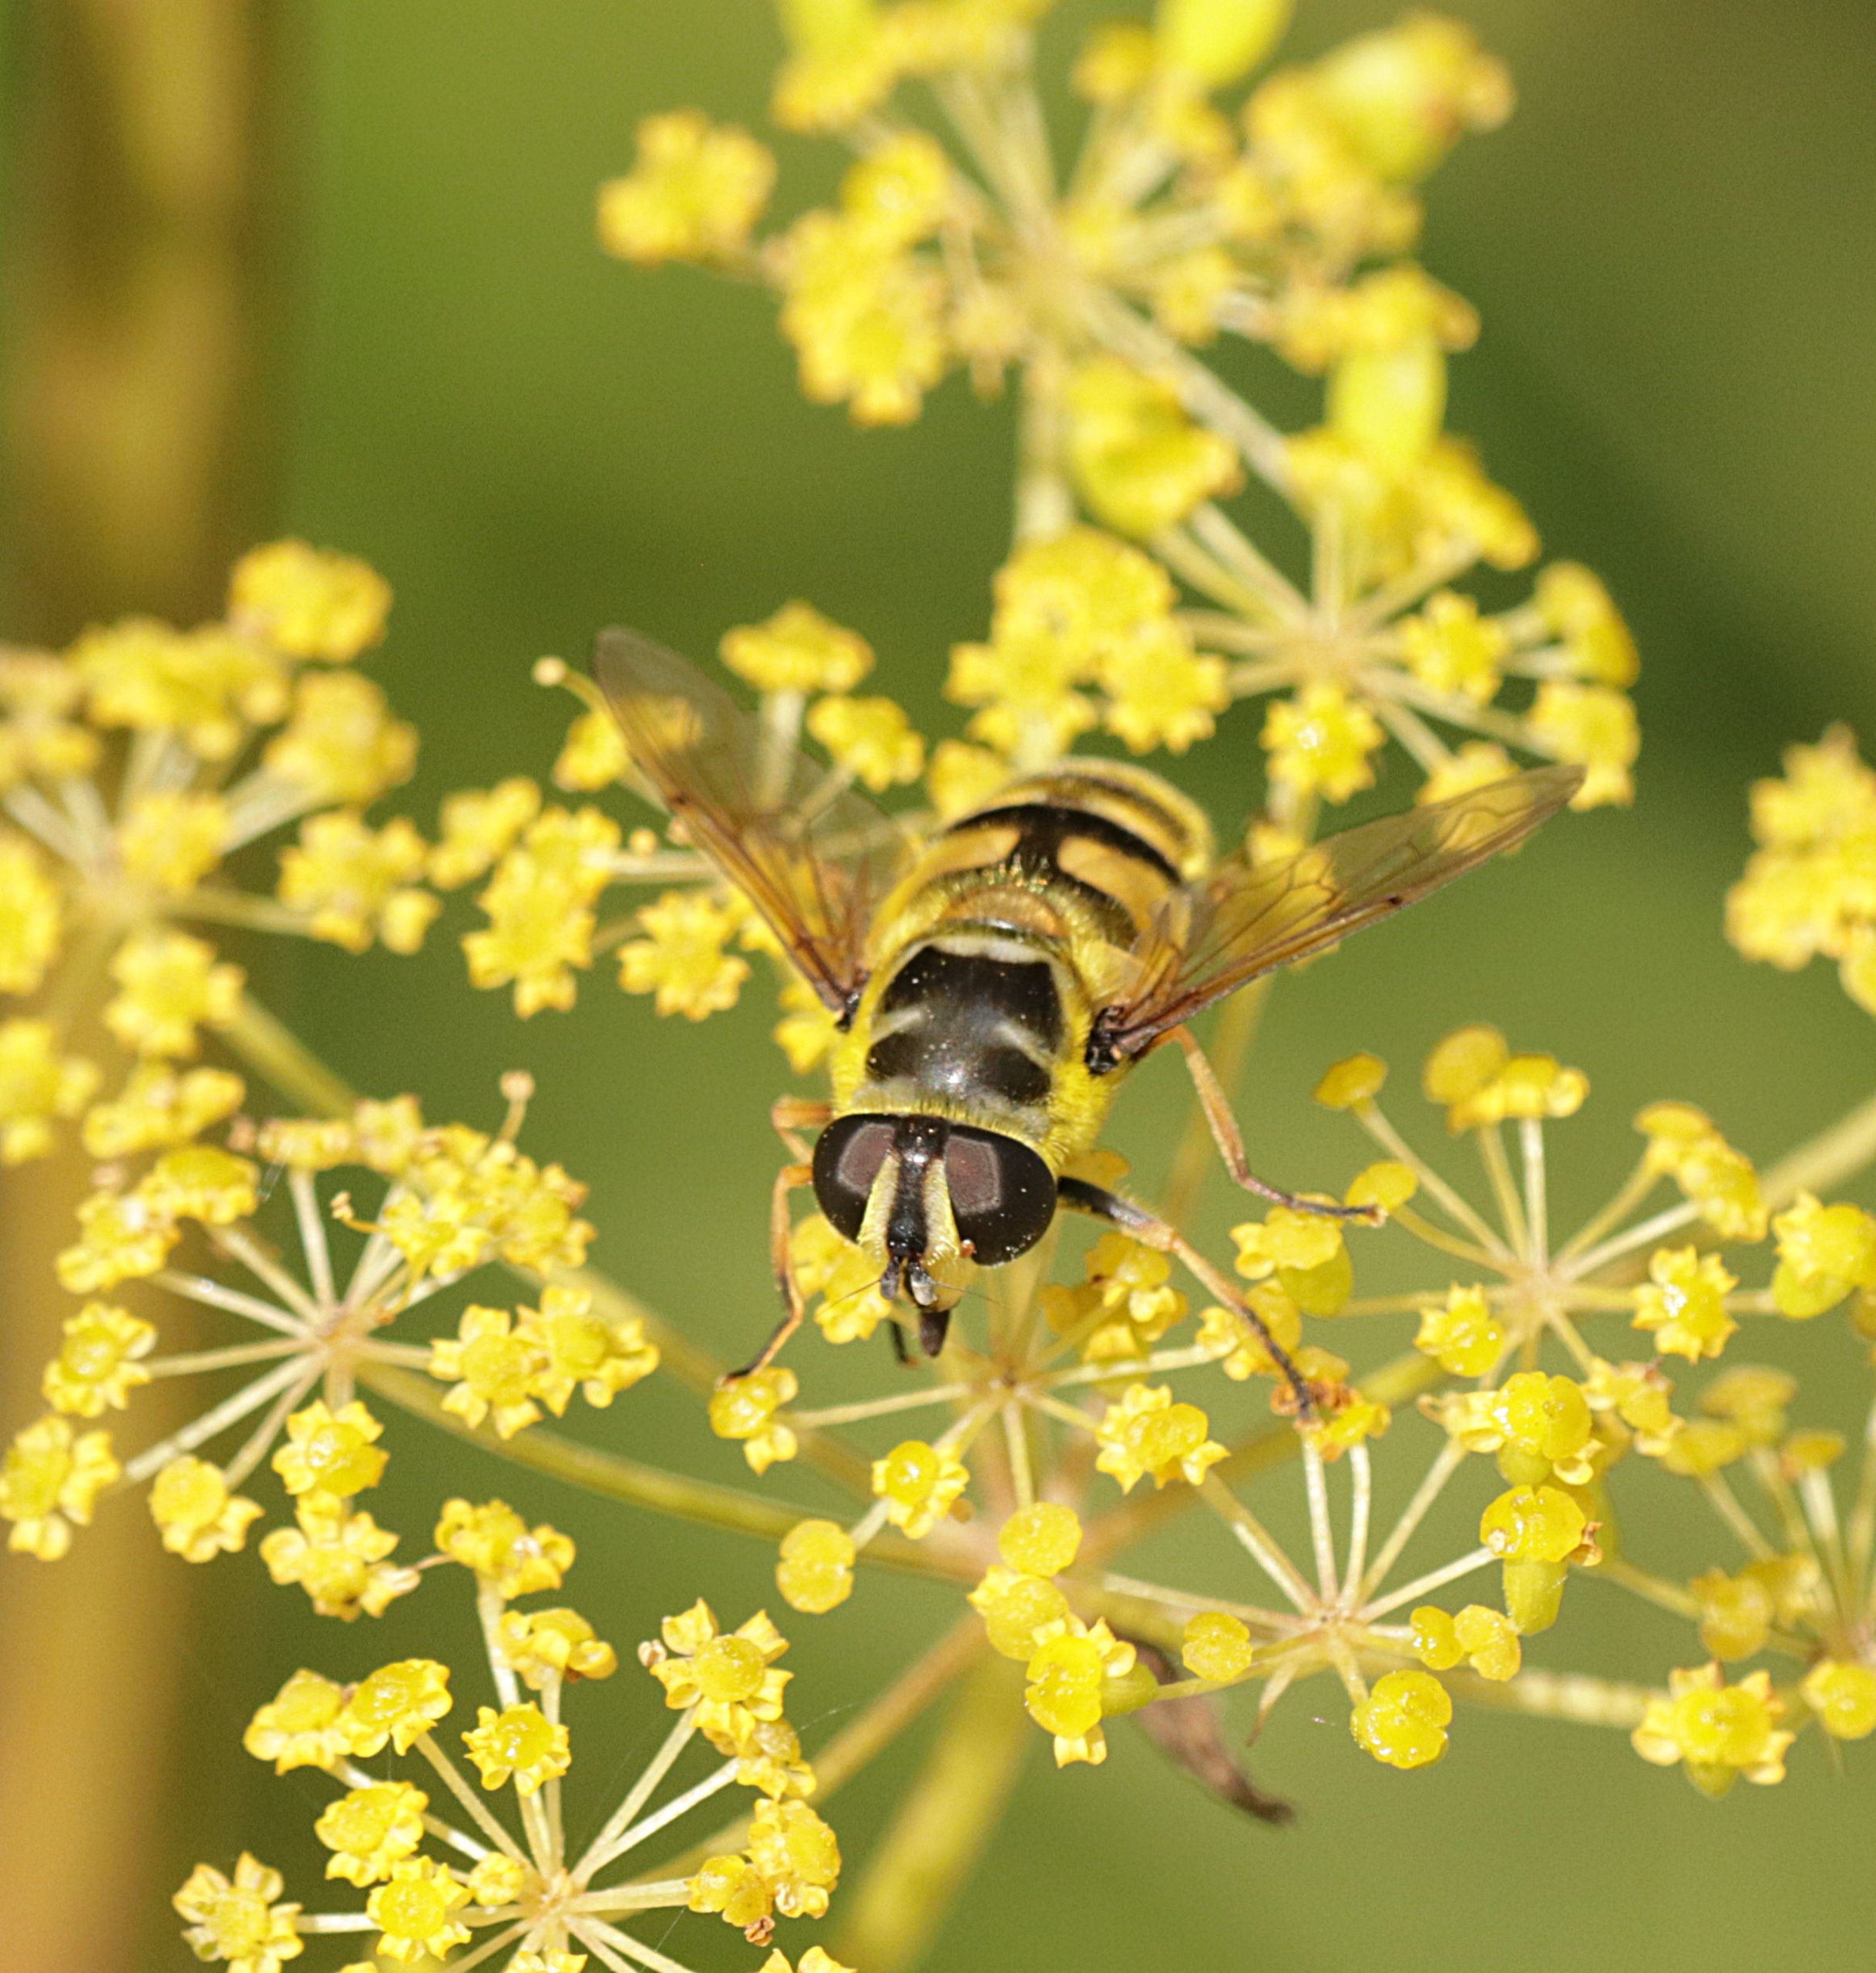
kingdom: Animalia
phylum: Arthropoda
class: Insecta
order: Diptera
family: Syrphidae
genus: Myathropa
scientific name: Myathropa florea
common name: Dødningehoved-svirreflue
